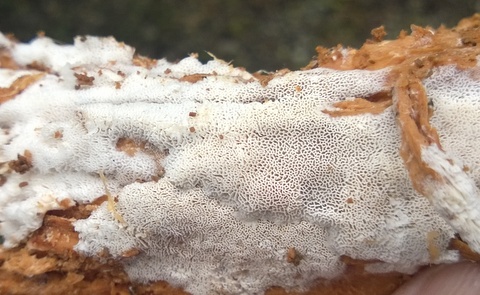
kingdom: Fungi
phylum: Basidiomycota
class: Agaricomycetes
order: Trechisporales
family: Sistotremataceae
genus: Trechispora
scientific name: Trechispora hymenocystis
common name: poret vathinde
